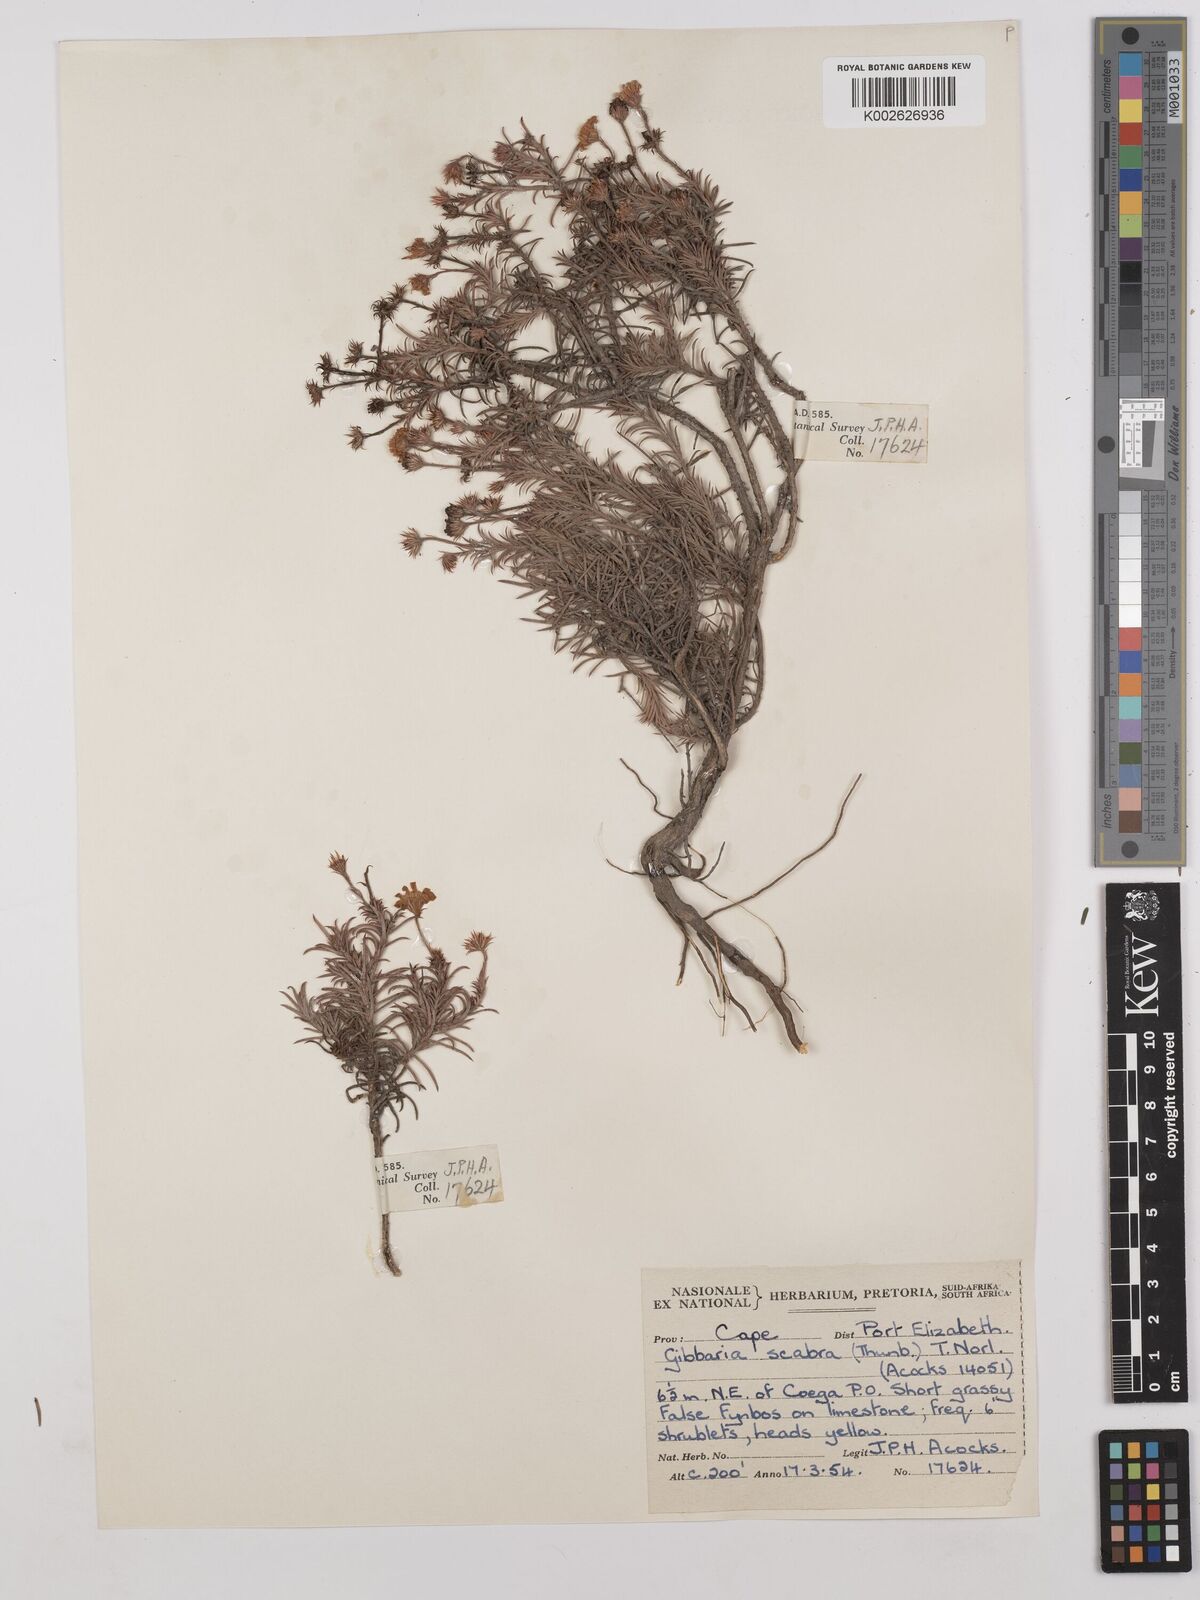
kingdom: Plantae
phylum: Tracheophyta
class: Magnoliopsida
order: Asterales
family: Asteraceae
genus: Gibbaria
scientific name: Gibbaria scabra
